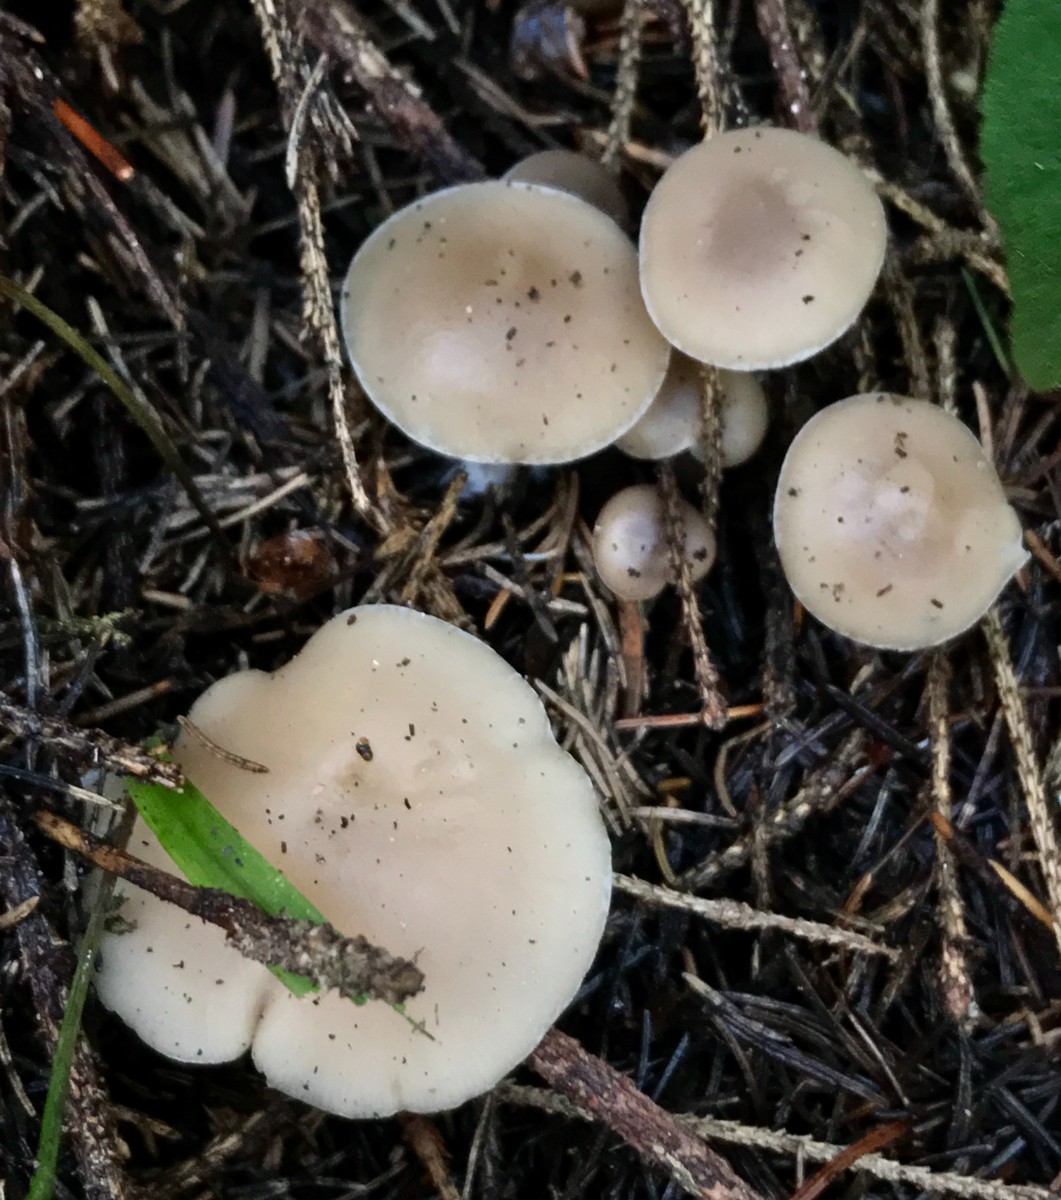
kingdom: Fungi
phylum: Basidiomycota
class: Agaricomycetes
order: Agaricales
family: Tricholomataceae
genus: Clitocybe
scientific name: Clitocybe fragrans
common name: vellugtende tragthat
